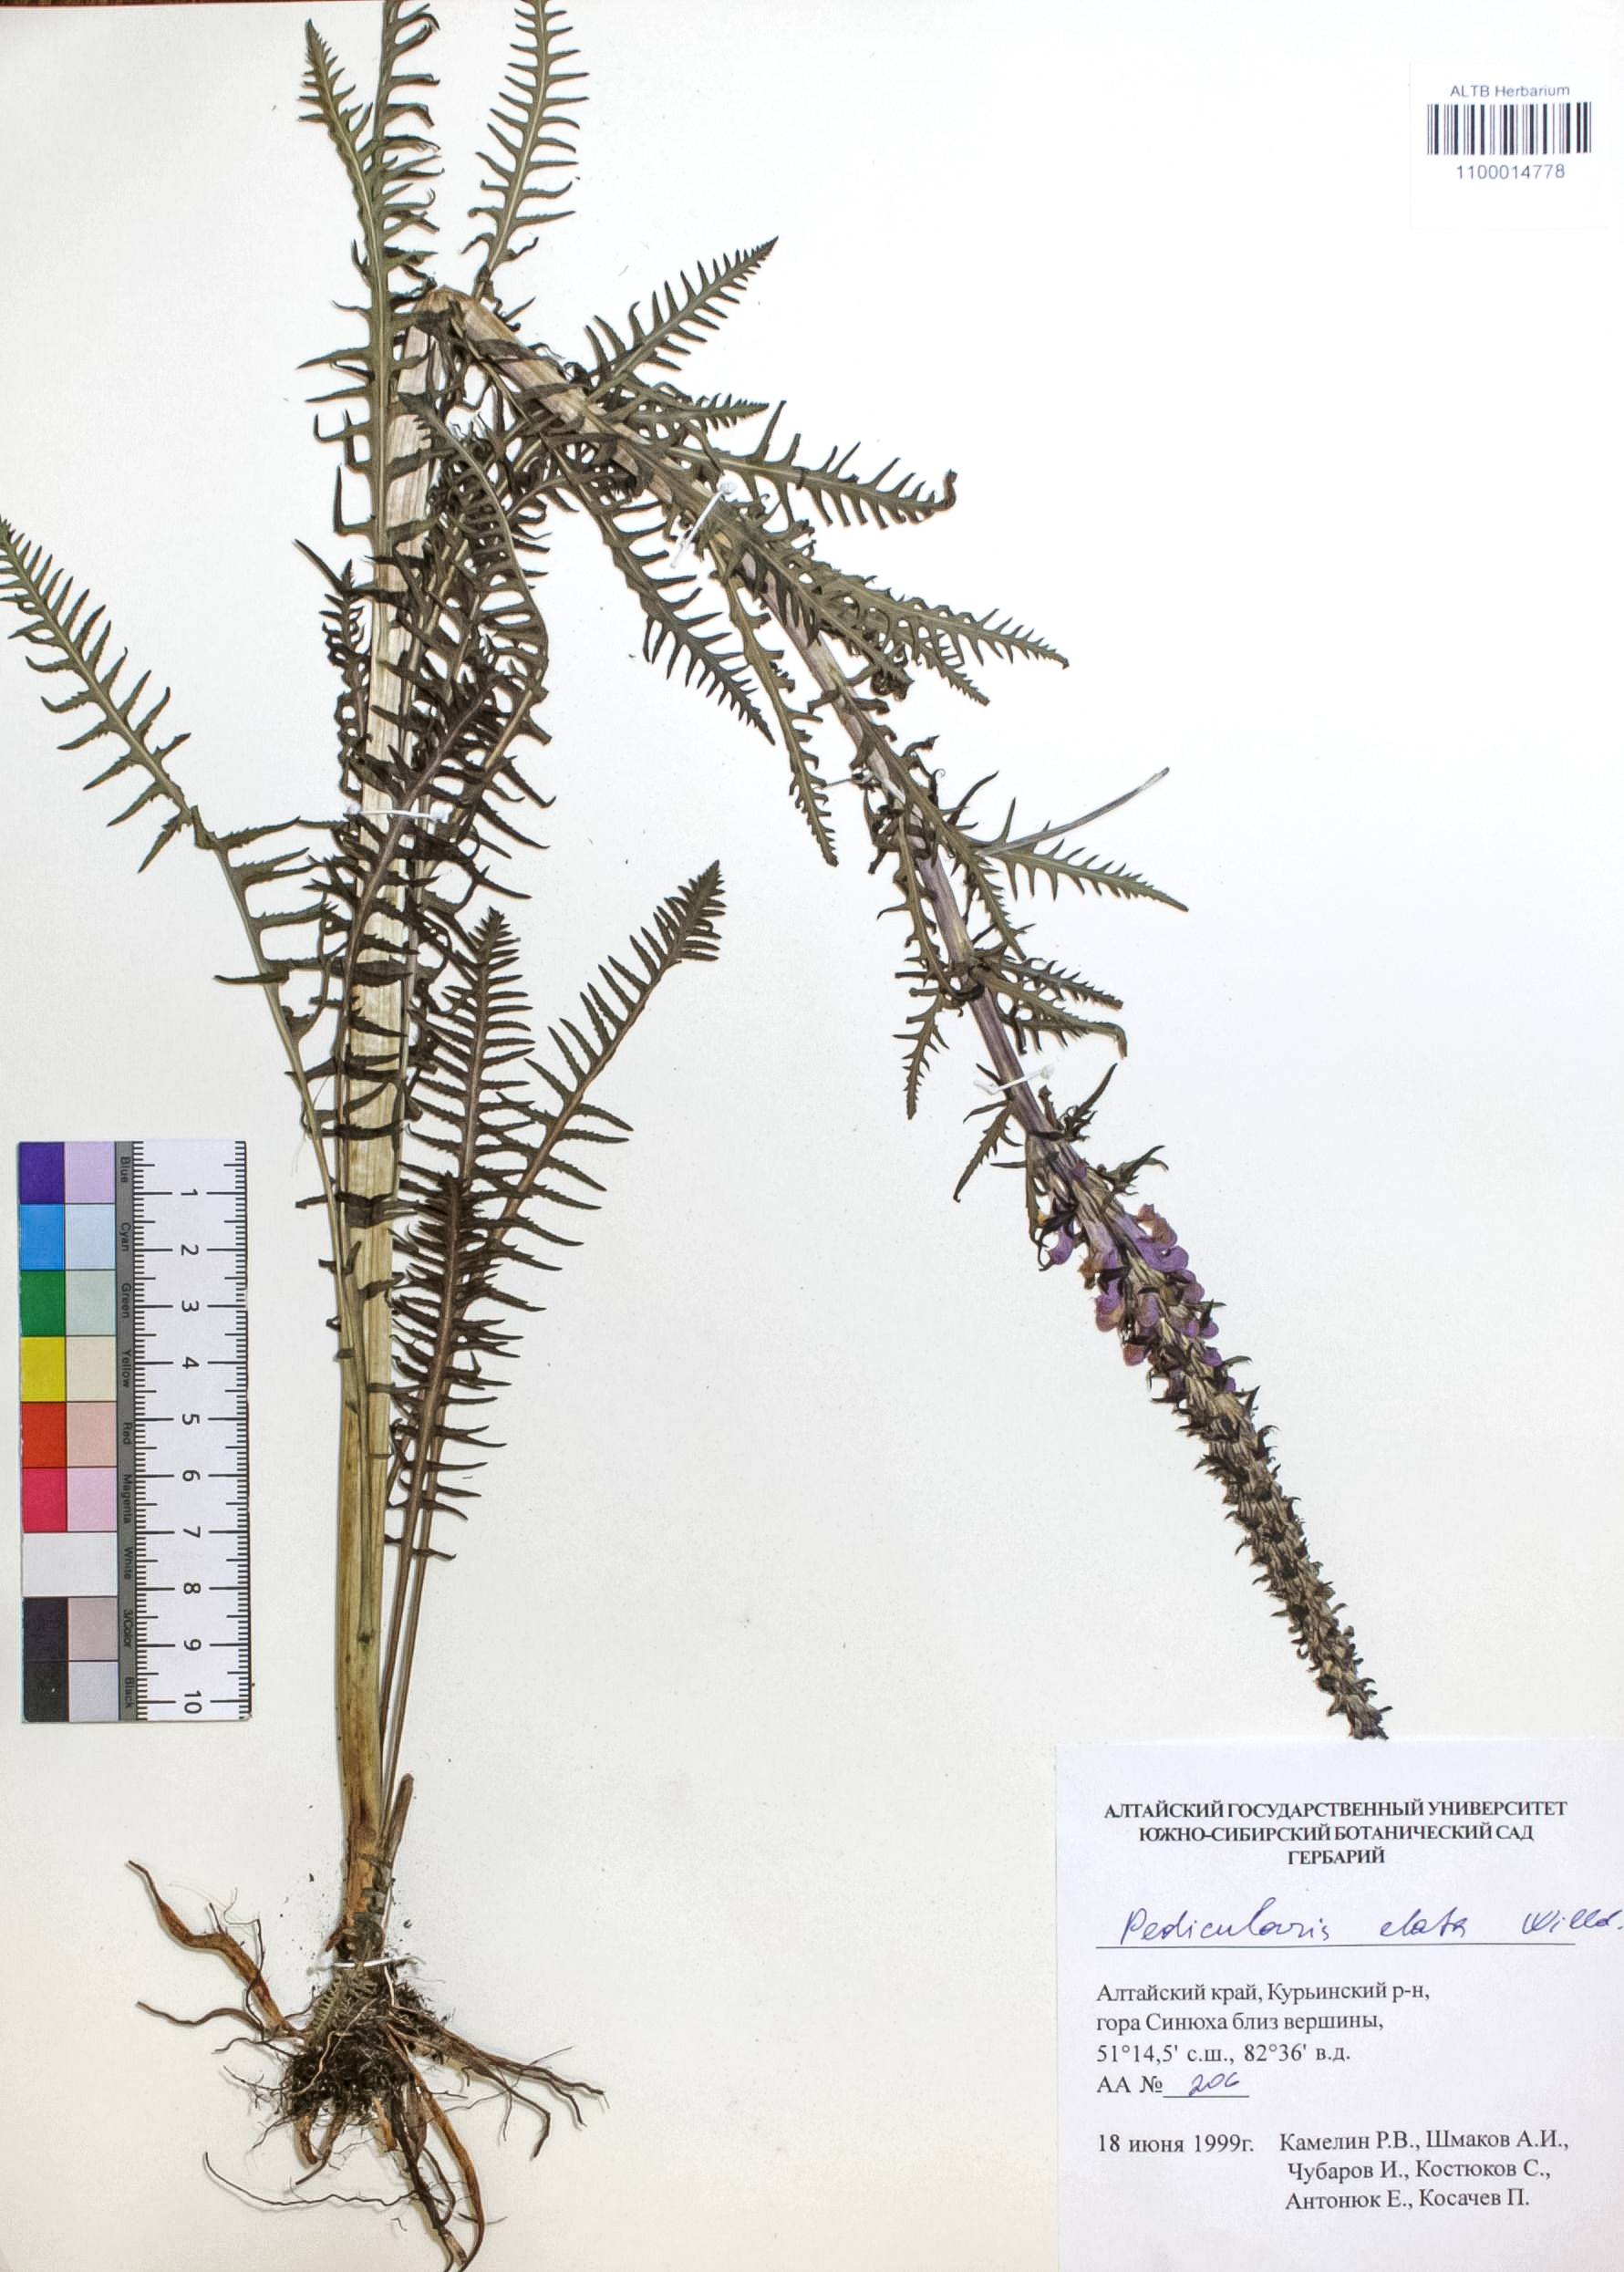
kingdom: Plantae
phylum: Tracheophyta
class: Magnoliopsida
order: Lamiales
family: Orobanchaceae
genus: Pedicularis
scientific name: Pedicularis elata
